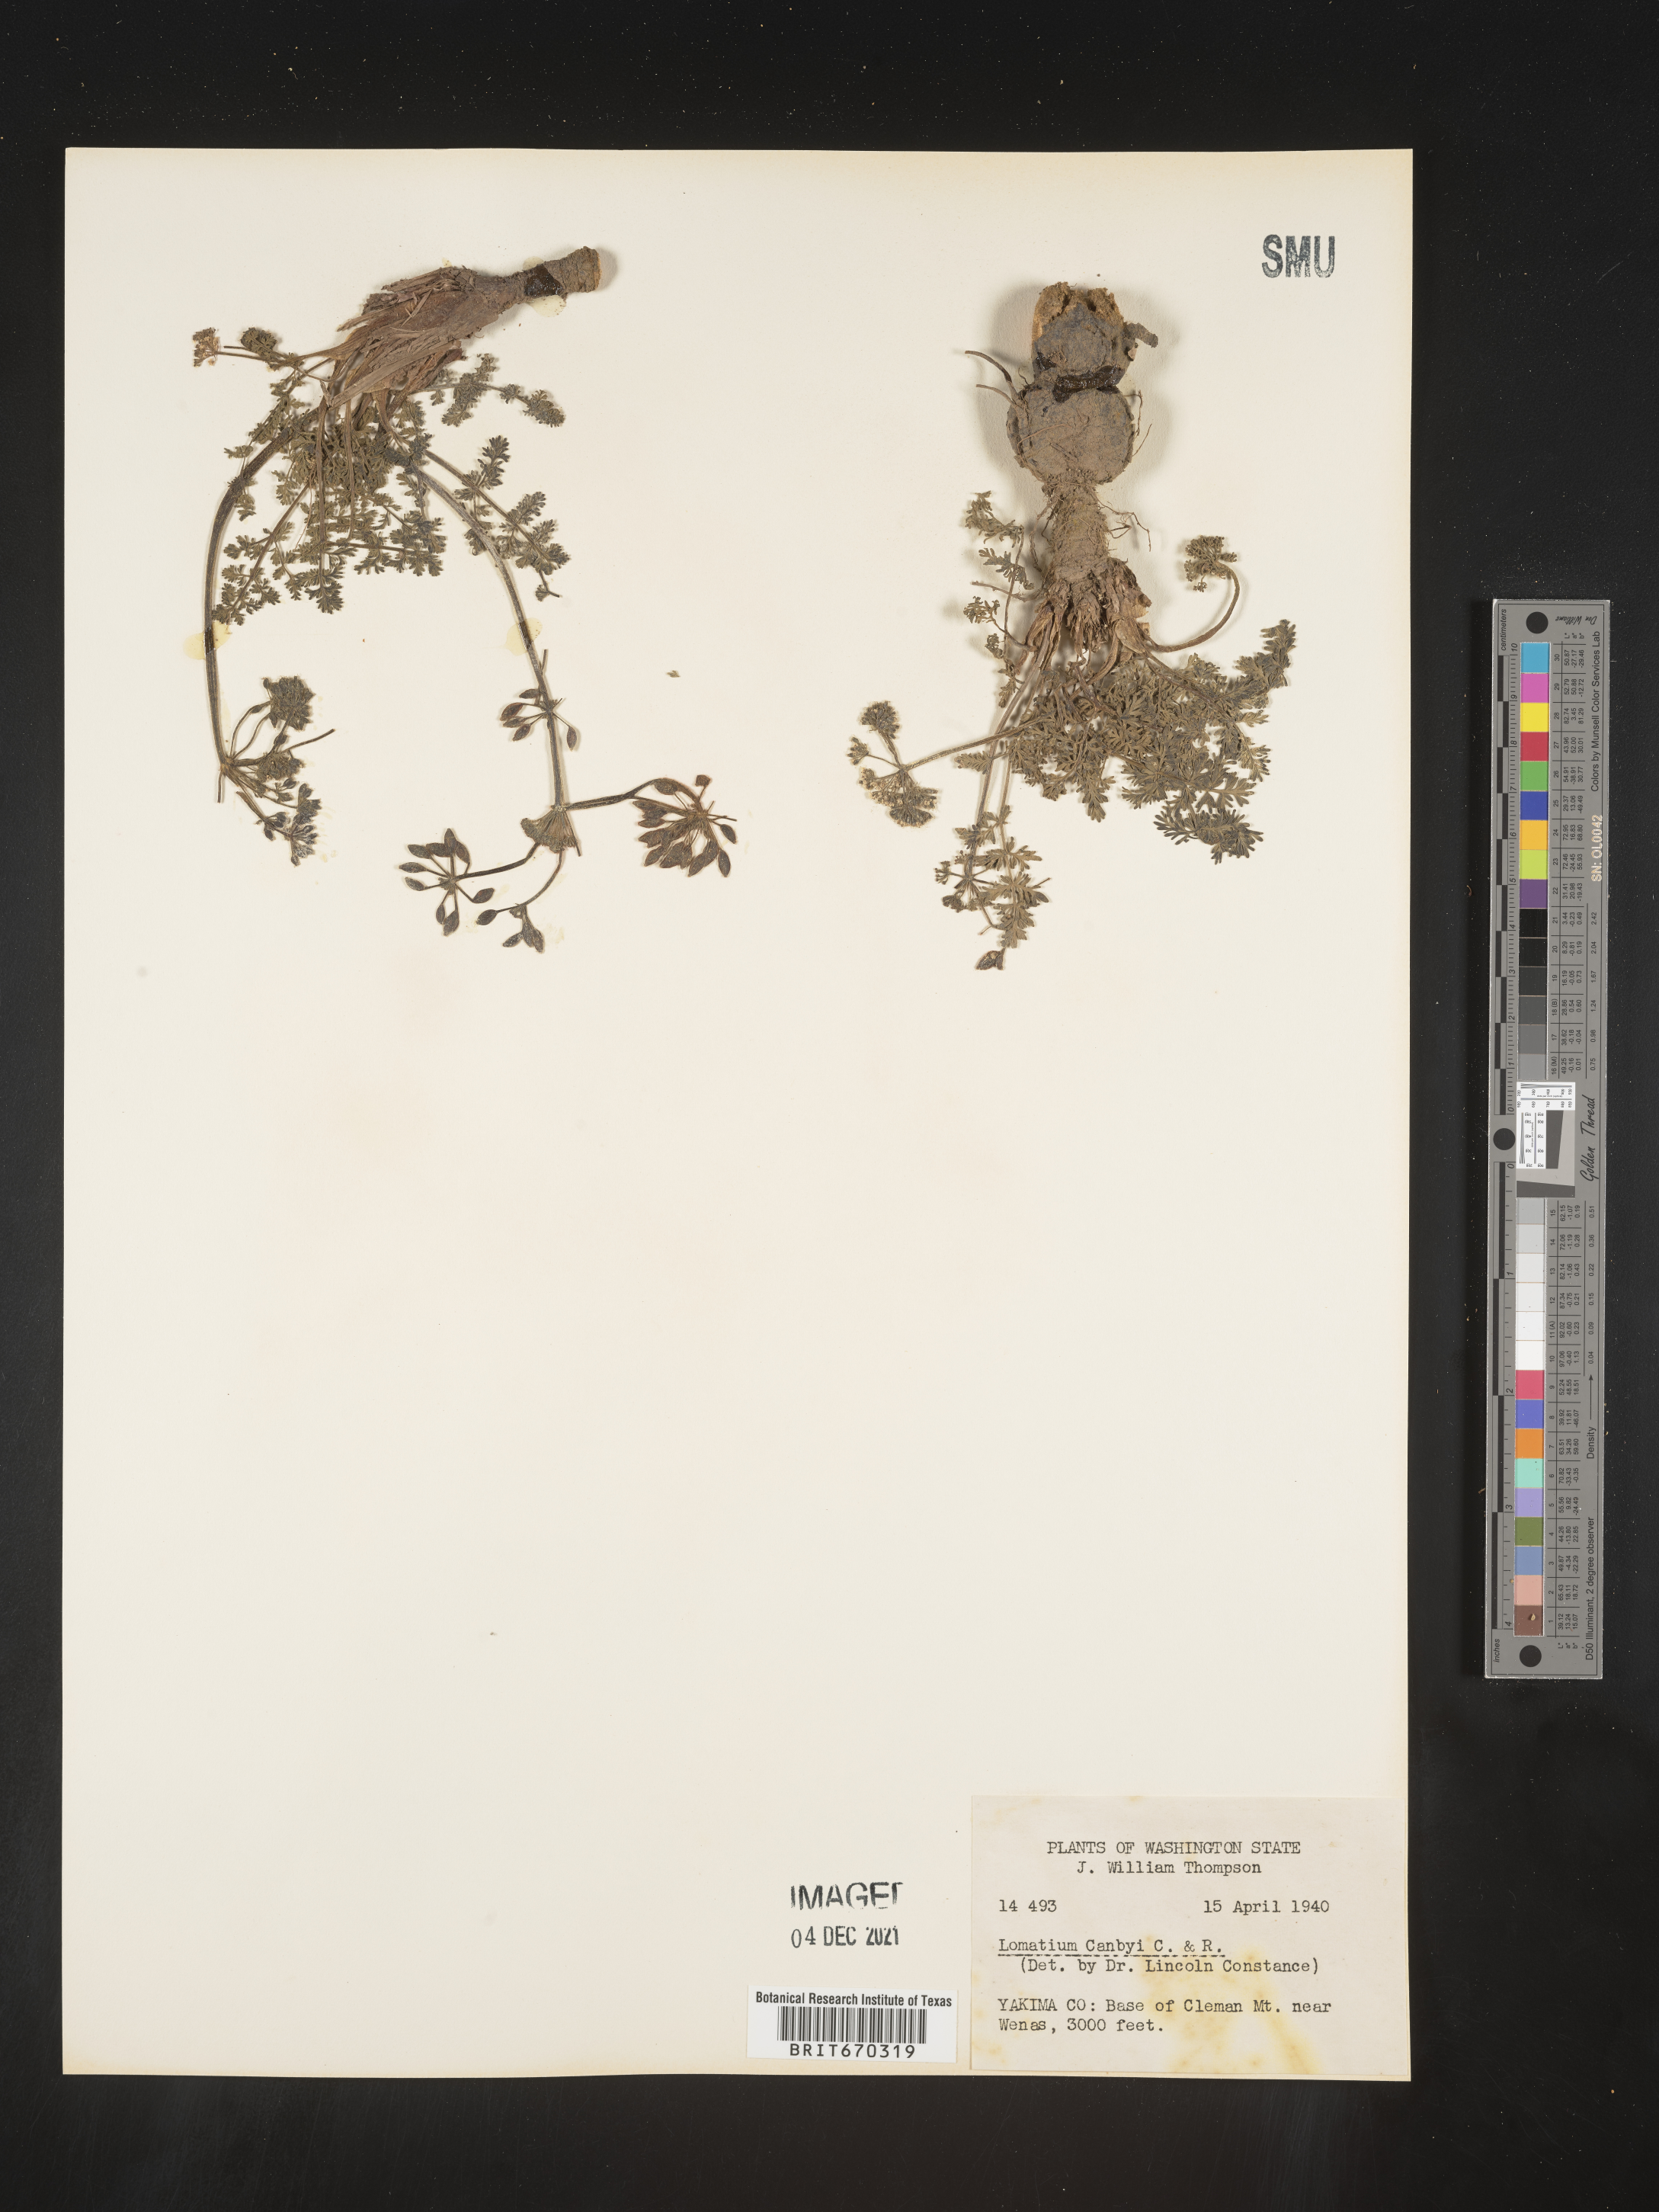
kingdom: Plantae
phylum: Tracheophyta
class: Magnoliopsida
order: Apiales
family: Apiaceae
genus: Lomatium
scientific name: Lomatium canbyi
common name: Chucklusa
